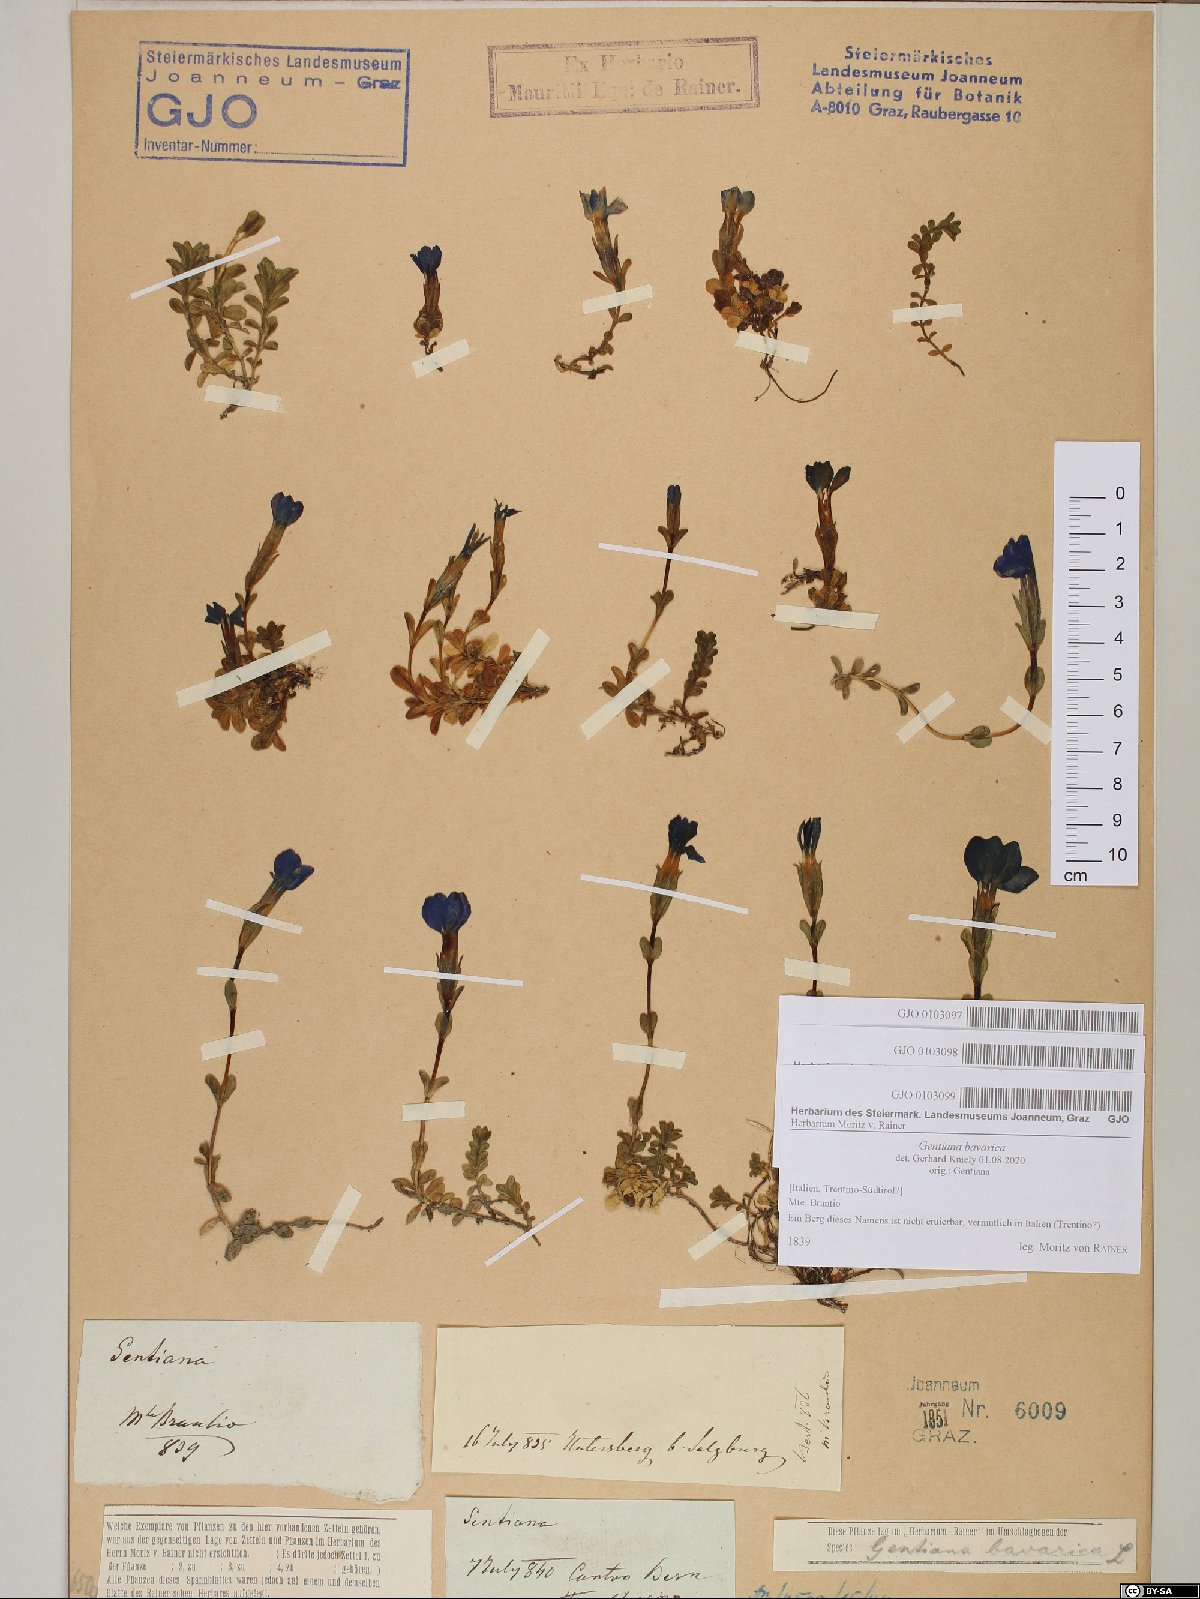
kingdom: Plantae
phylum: Tracheophyta
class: Magnoliopsida
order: Gentianales
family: Gentianaceae
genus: Gentiana
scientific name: Gentiana bavarica
